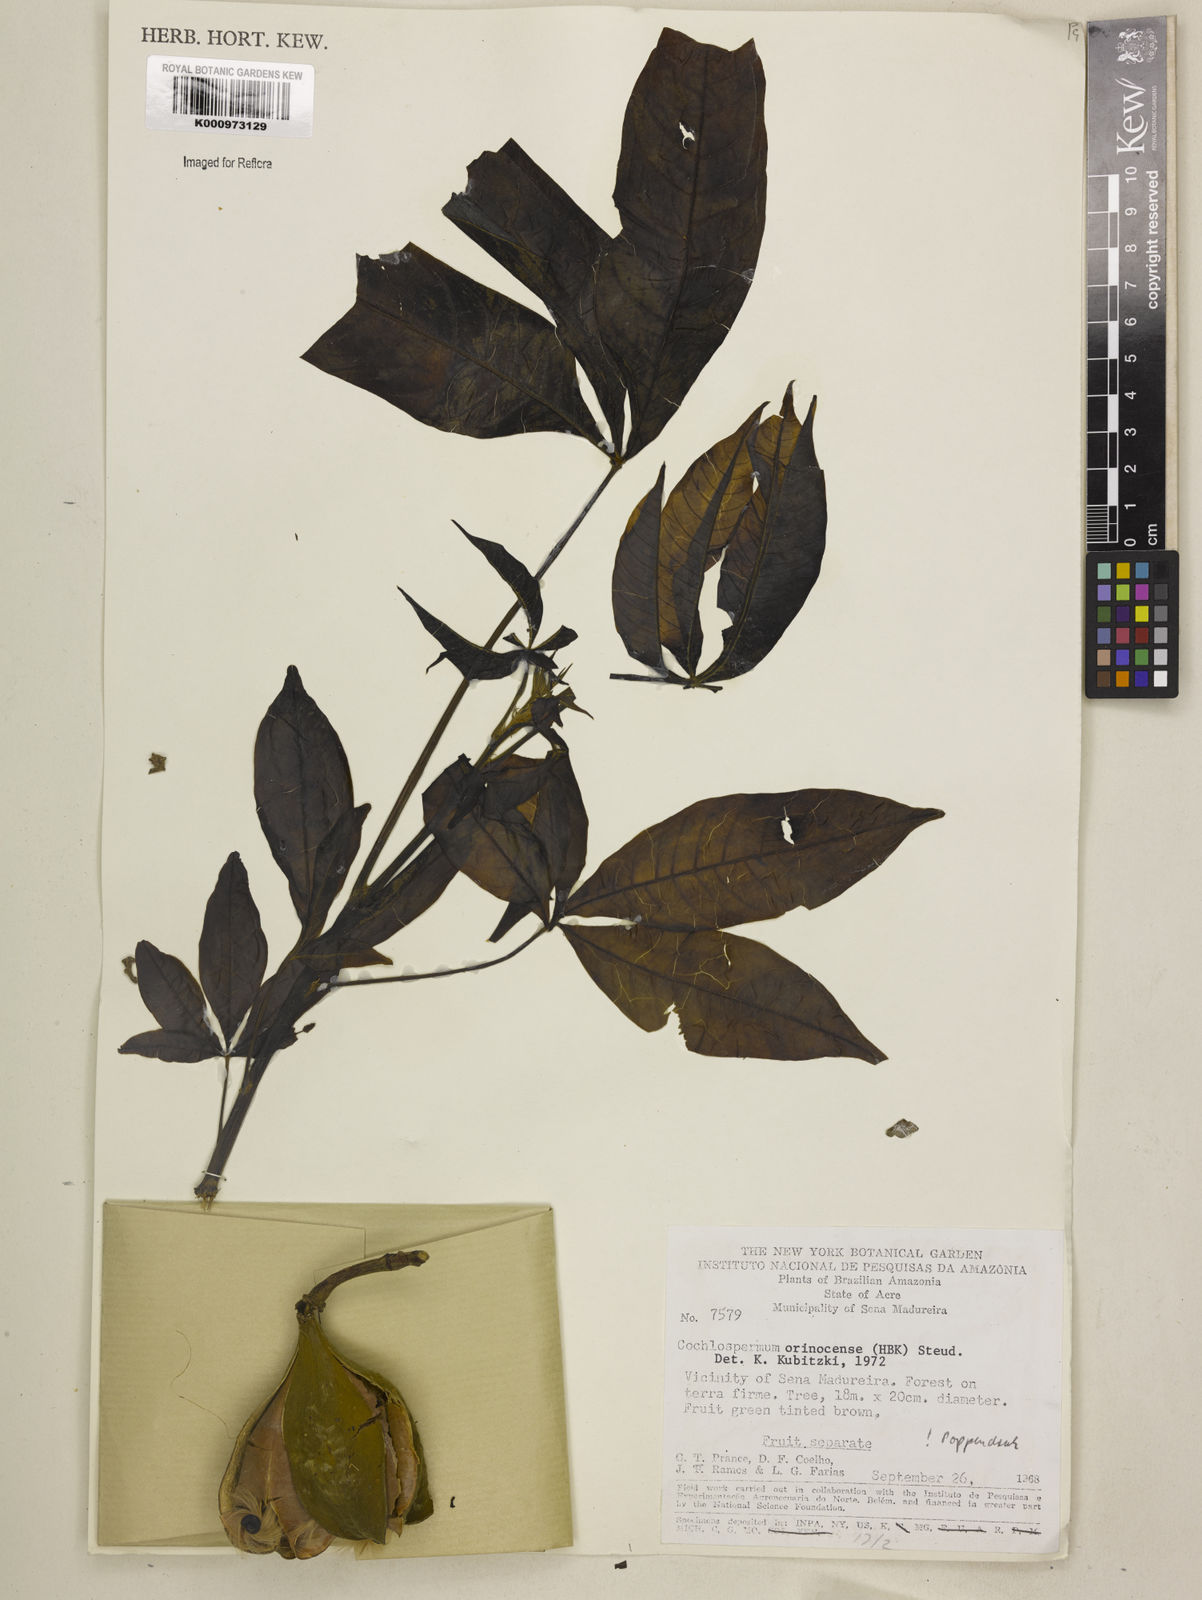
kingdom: Plantae
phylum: Tracheophyta
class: Magnoliopsida
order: Malvales
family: Cochlospermaceae
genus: Cochlospermum
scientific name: Cochlospermum orinocense
